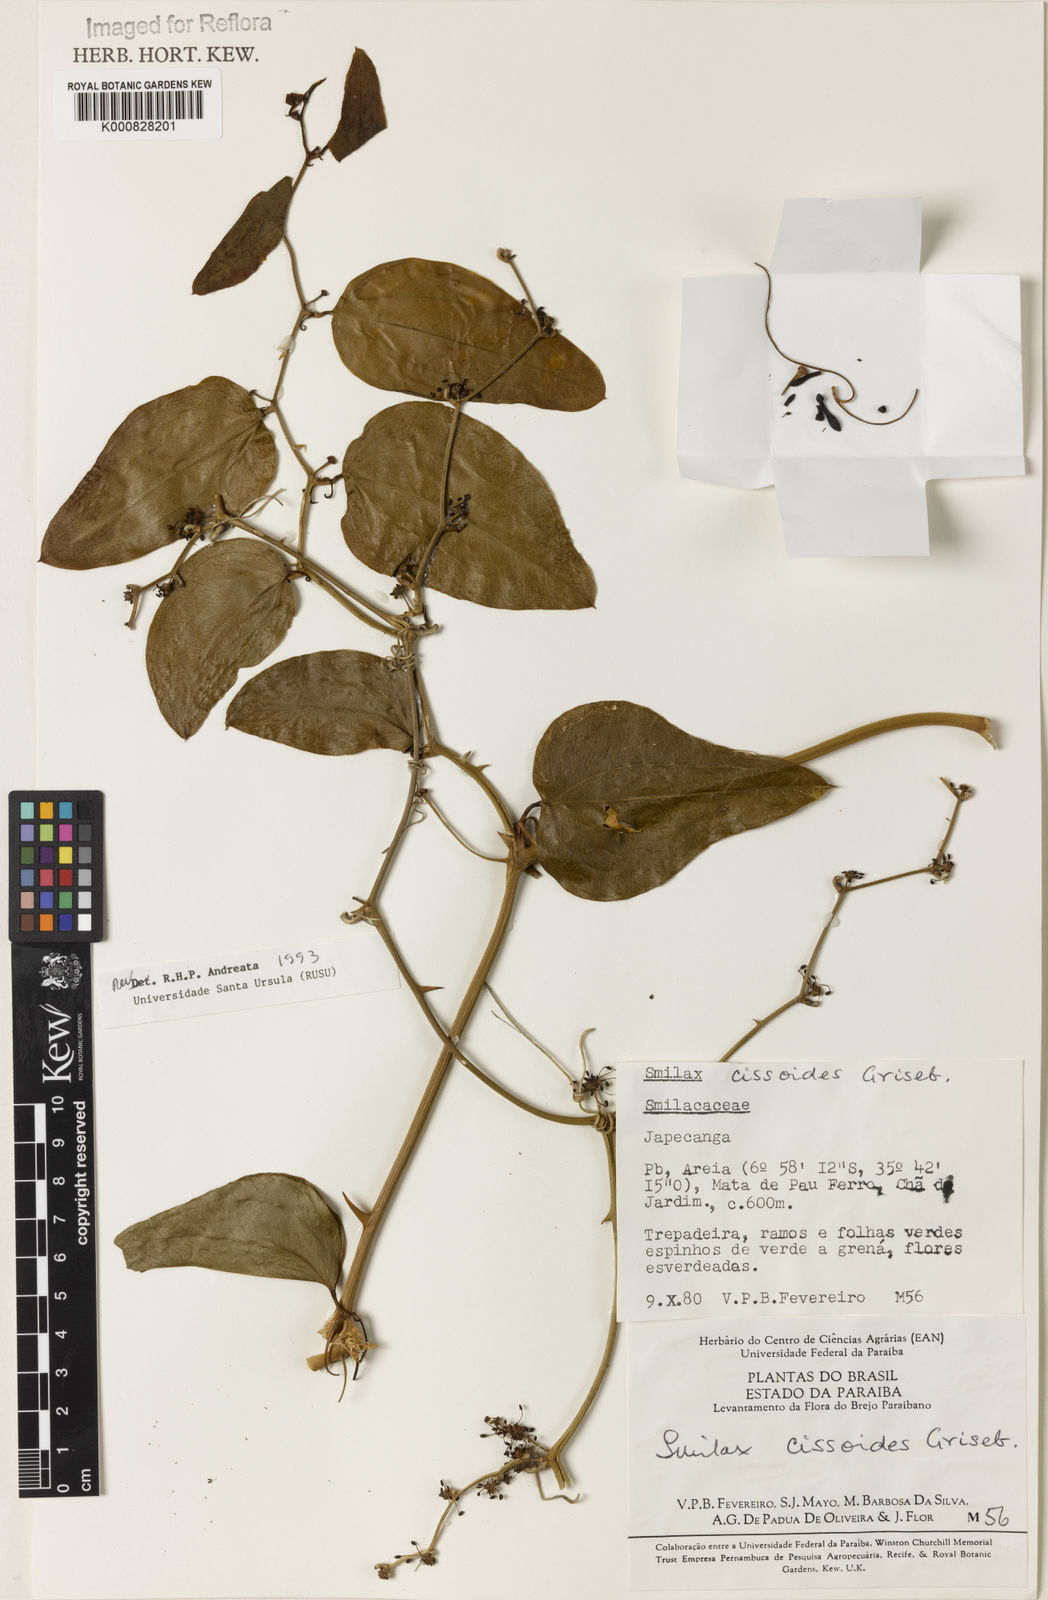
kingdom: Plantae
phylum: Tracheophyta
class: Liliopsida
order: Liliales
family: Smilacaceae
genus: Smilax
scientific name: Smilax
